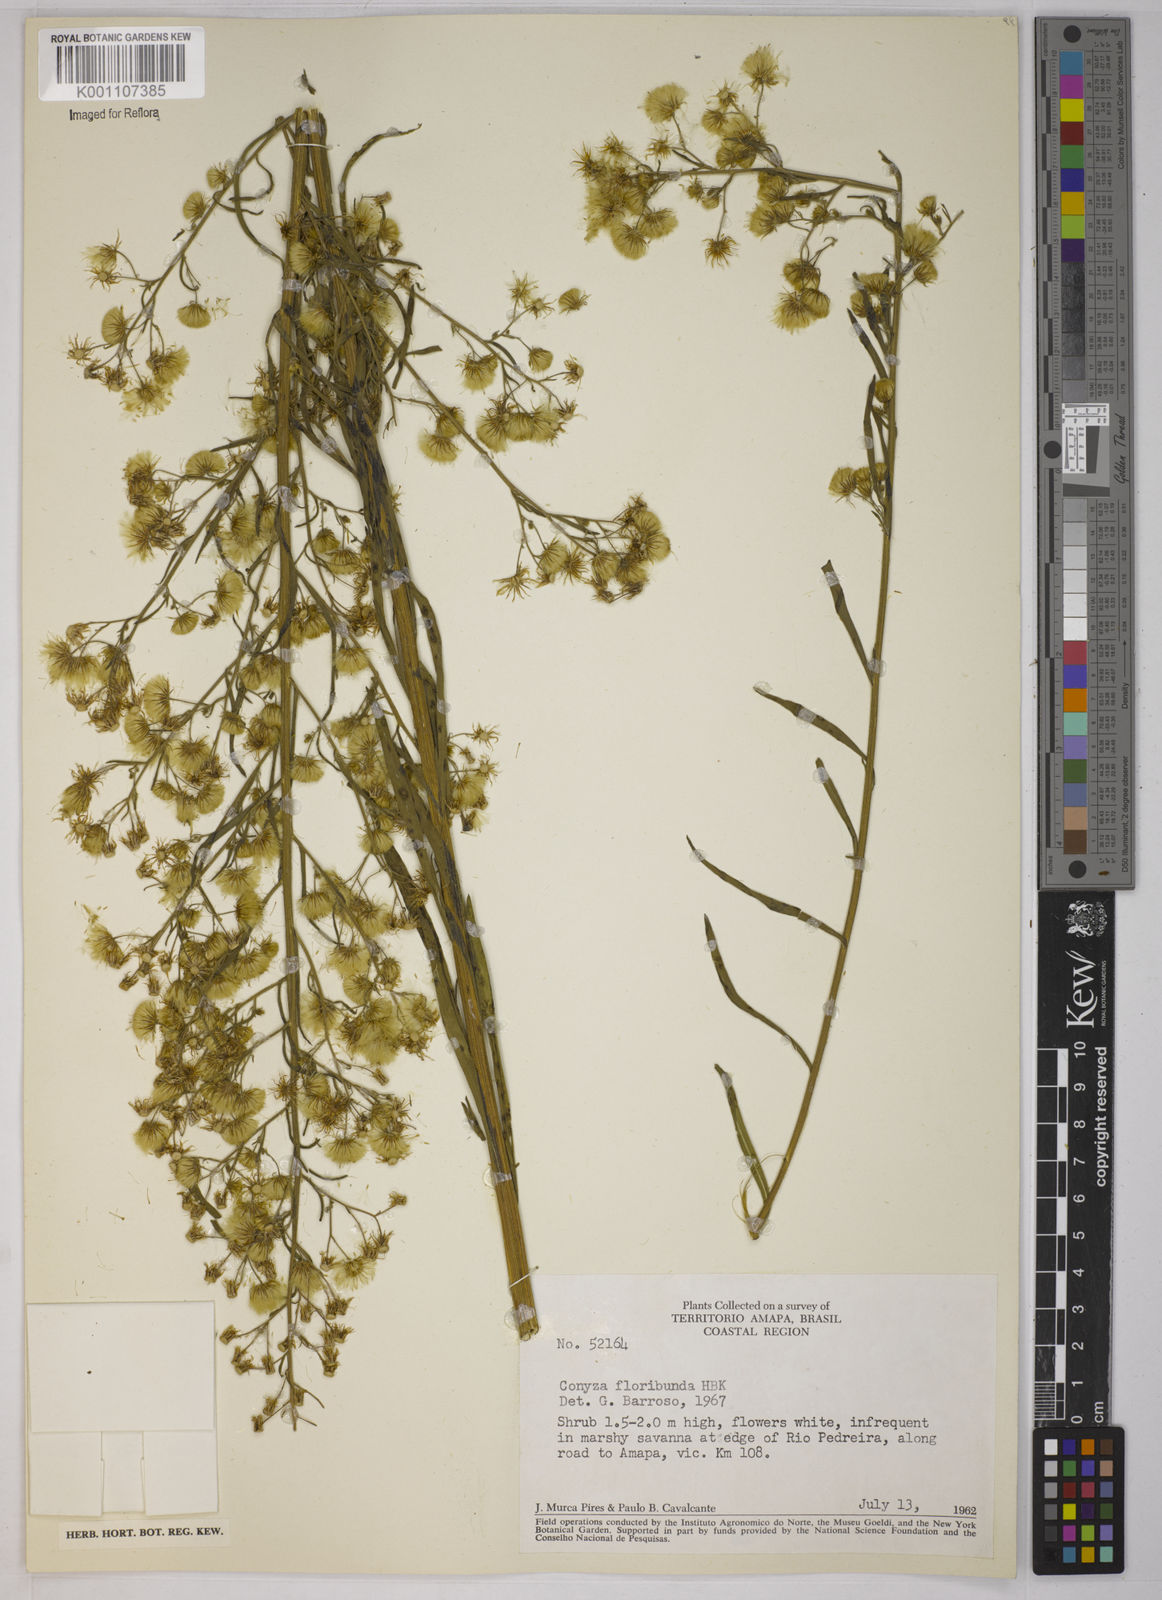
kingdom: Plantae
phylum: Tracheophyta
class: Magnoliopsida
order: Asterales
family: Asteraceae
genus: Erigeron
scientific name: Erigeron sumatrensis
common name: Daisy
